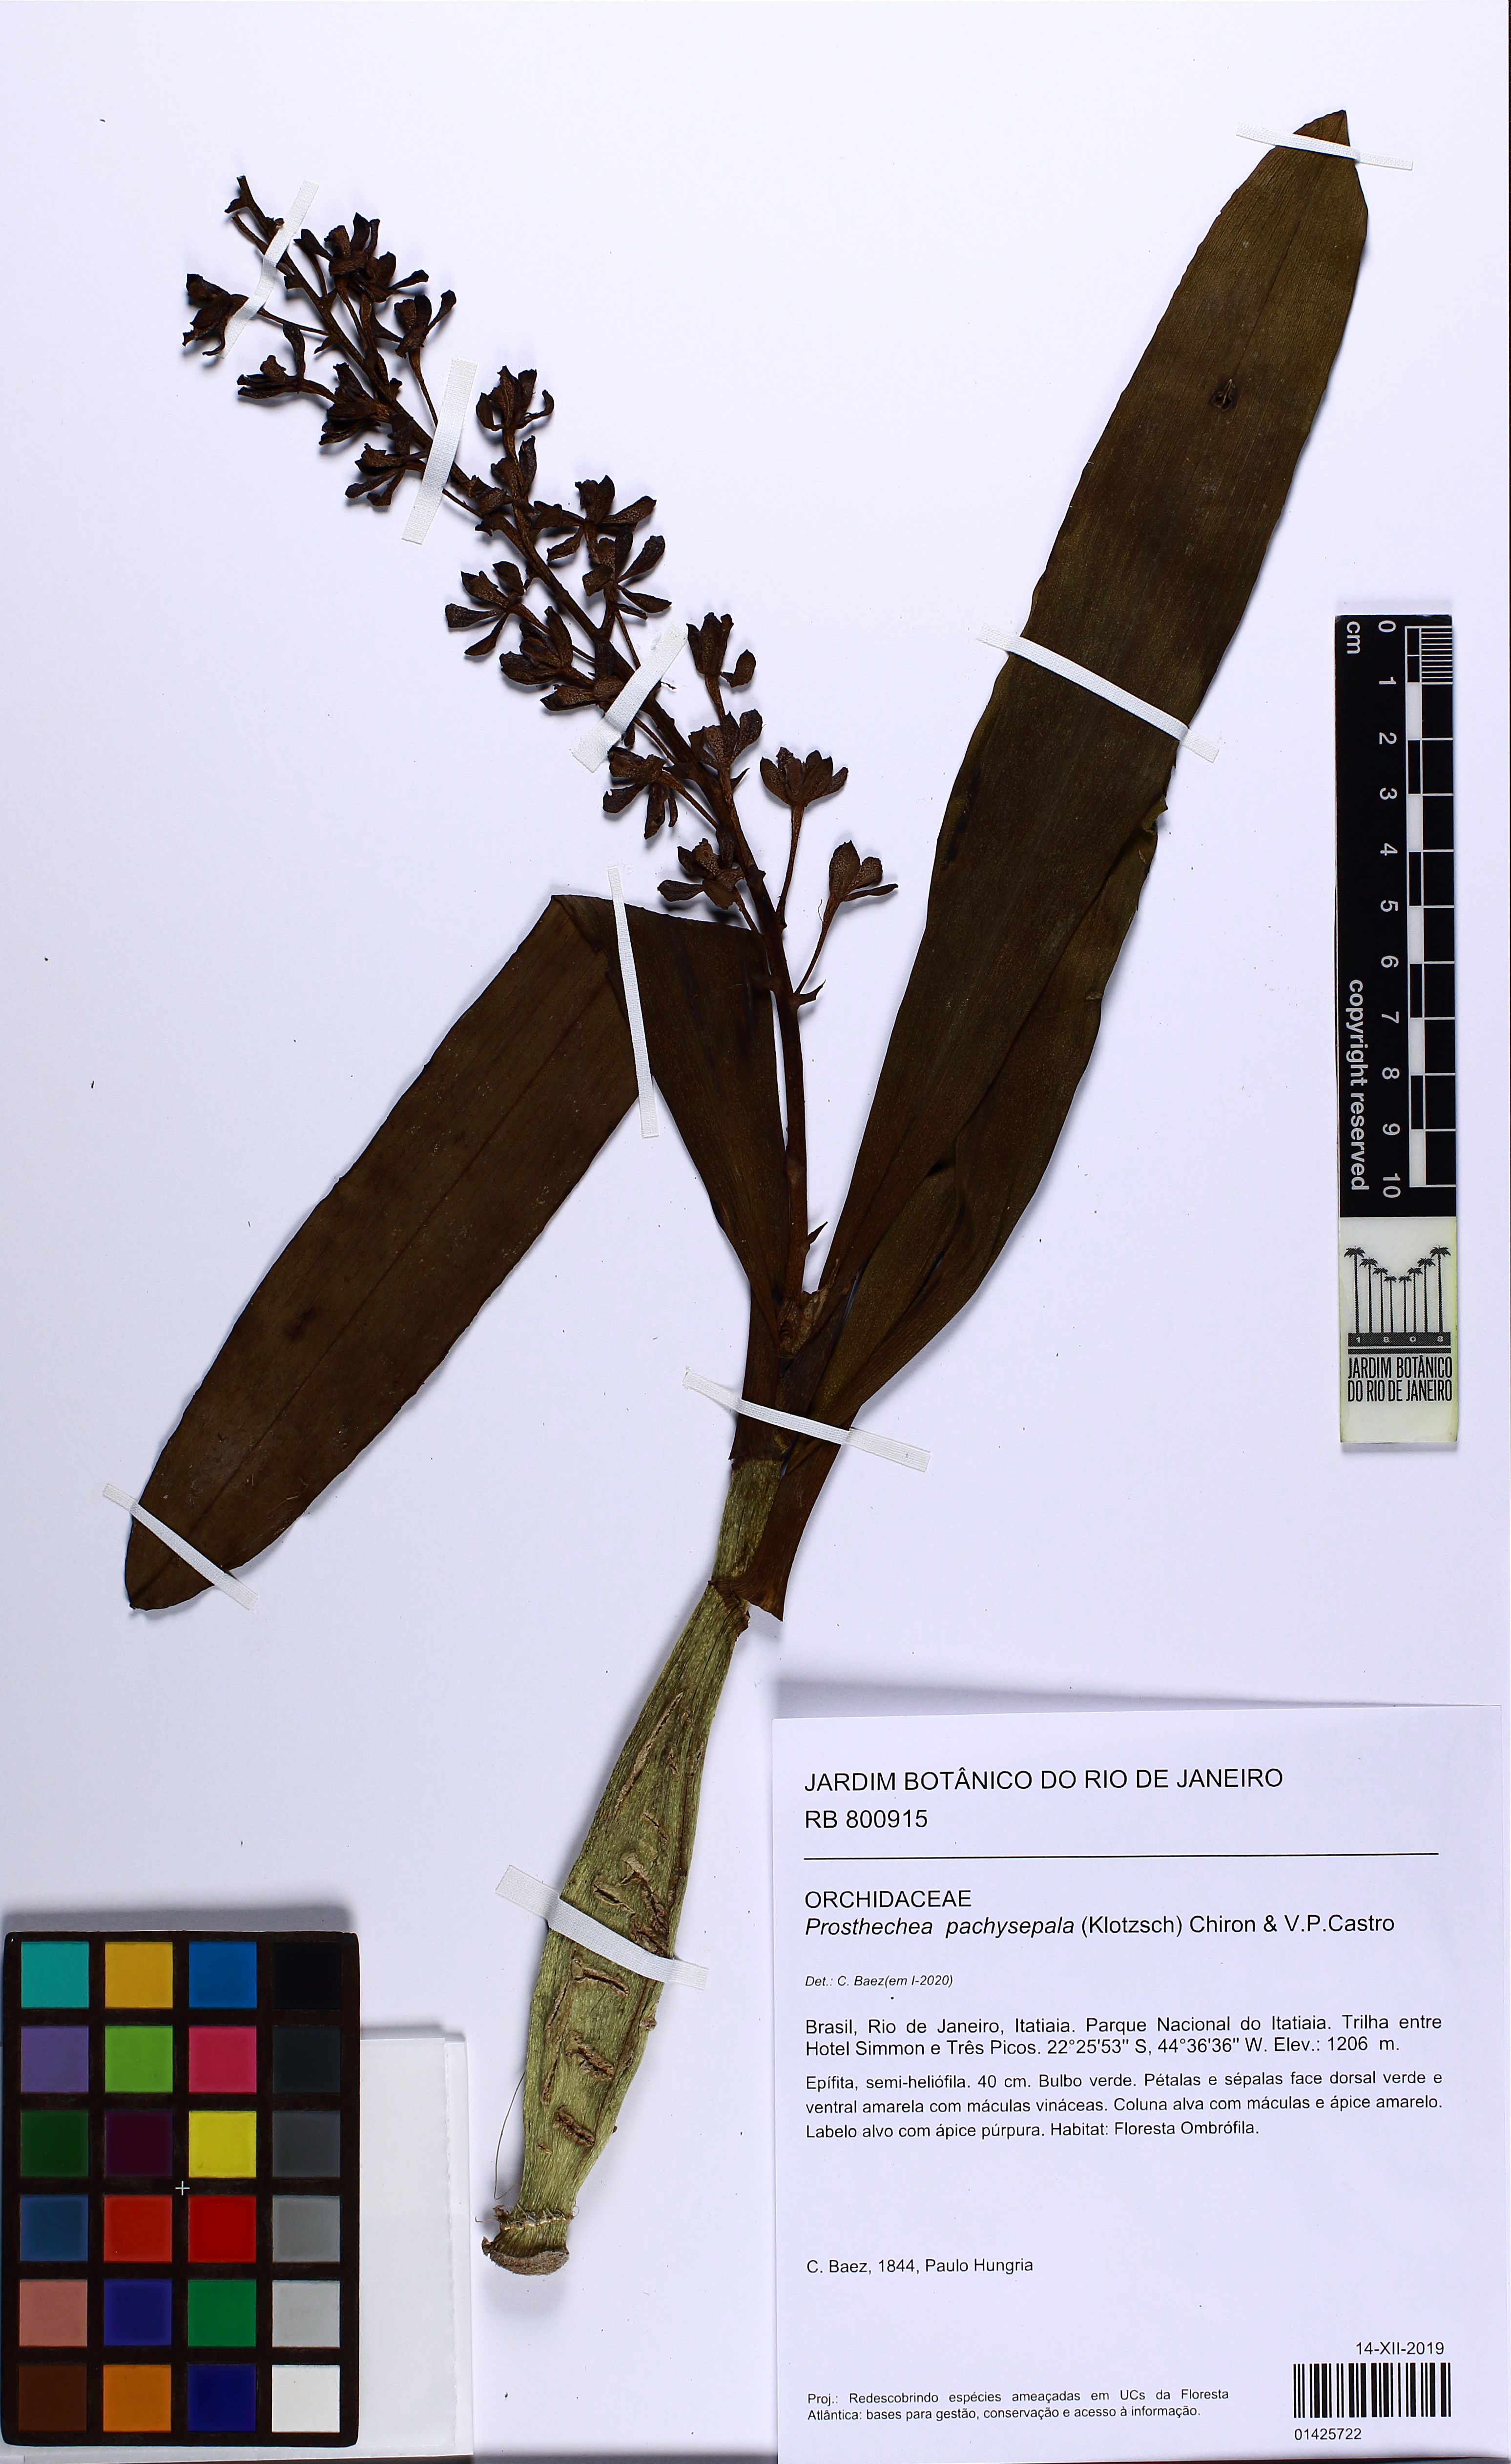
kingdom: Plantae
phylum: Tracheophyta
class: Liliopsida
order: Asparagales
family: Orchidaceae
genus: Prosthechea
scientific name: Prosthechea pachysepala
